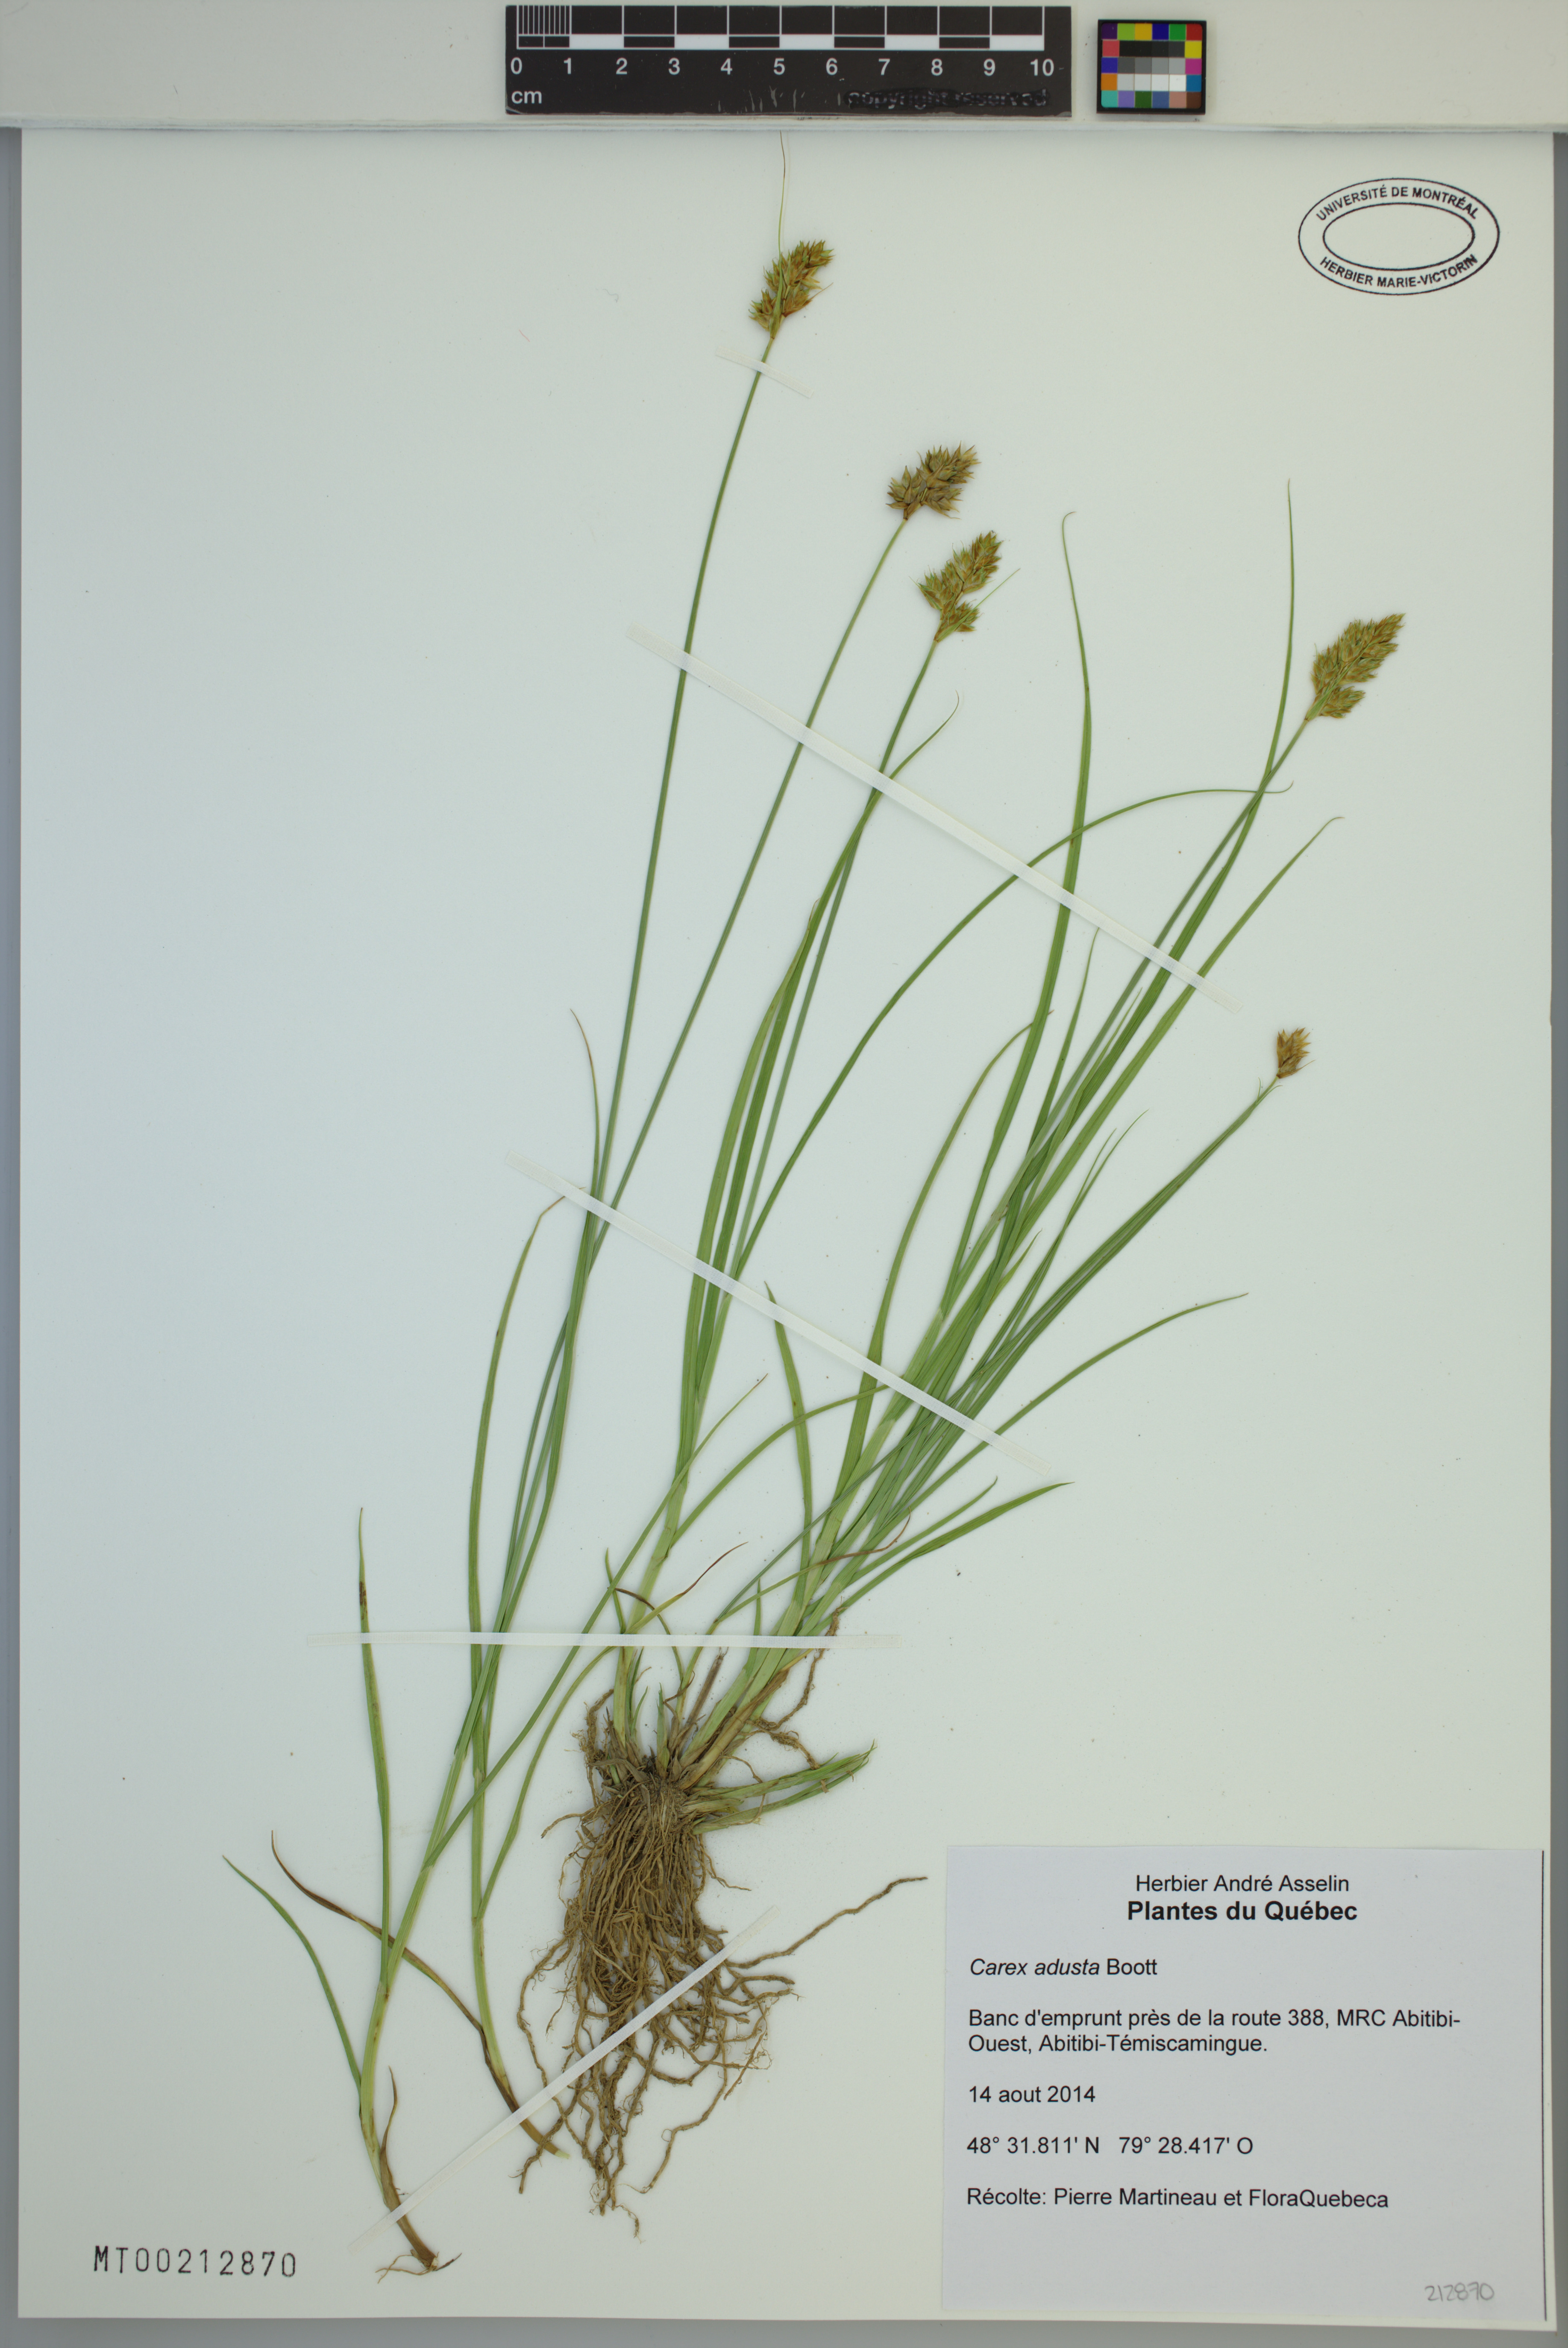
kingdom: Plantae
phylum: Tracheophyta
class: Liliopsida
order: Poales
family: Cyperaceae
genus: Carex
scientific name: Carex adusta
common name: Browned sedge
